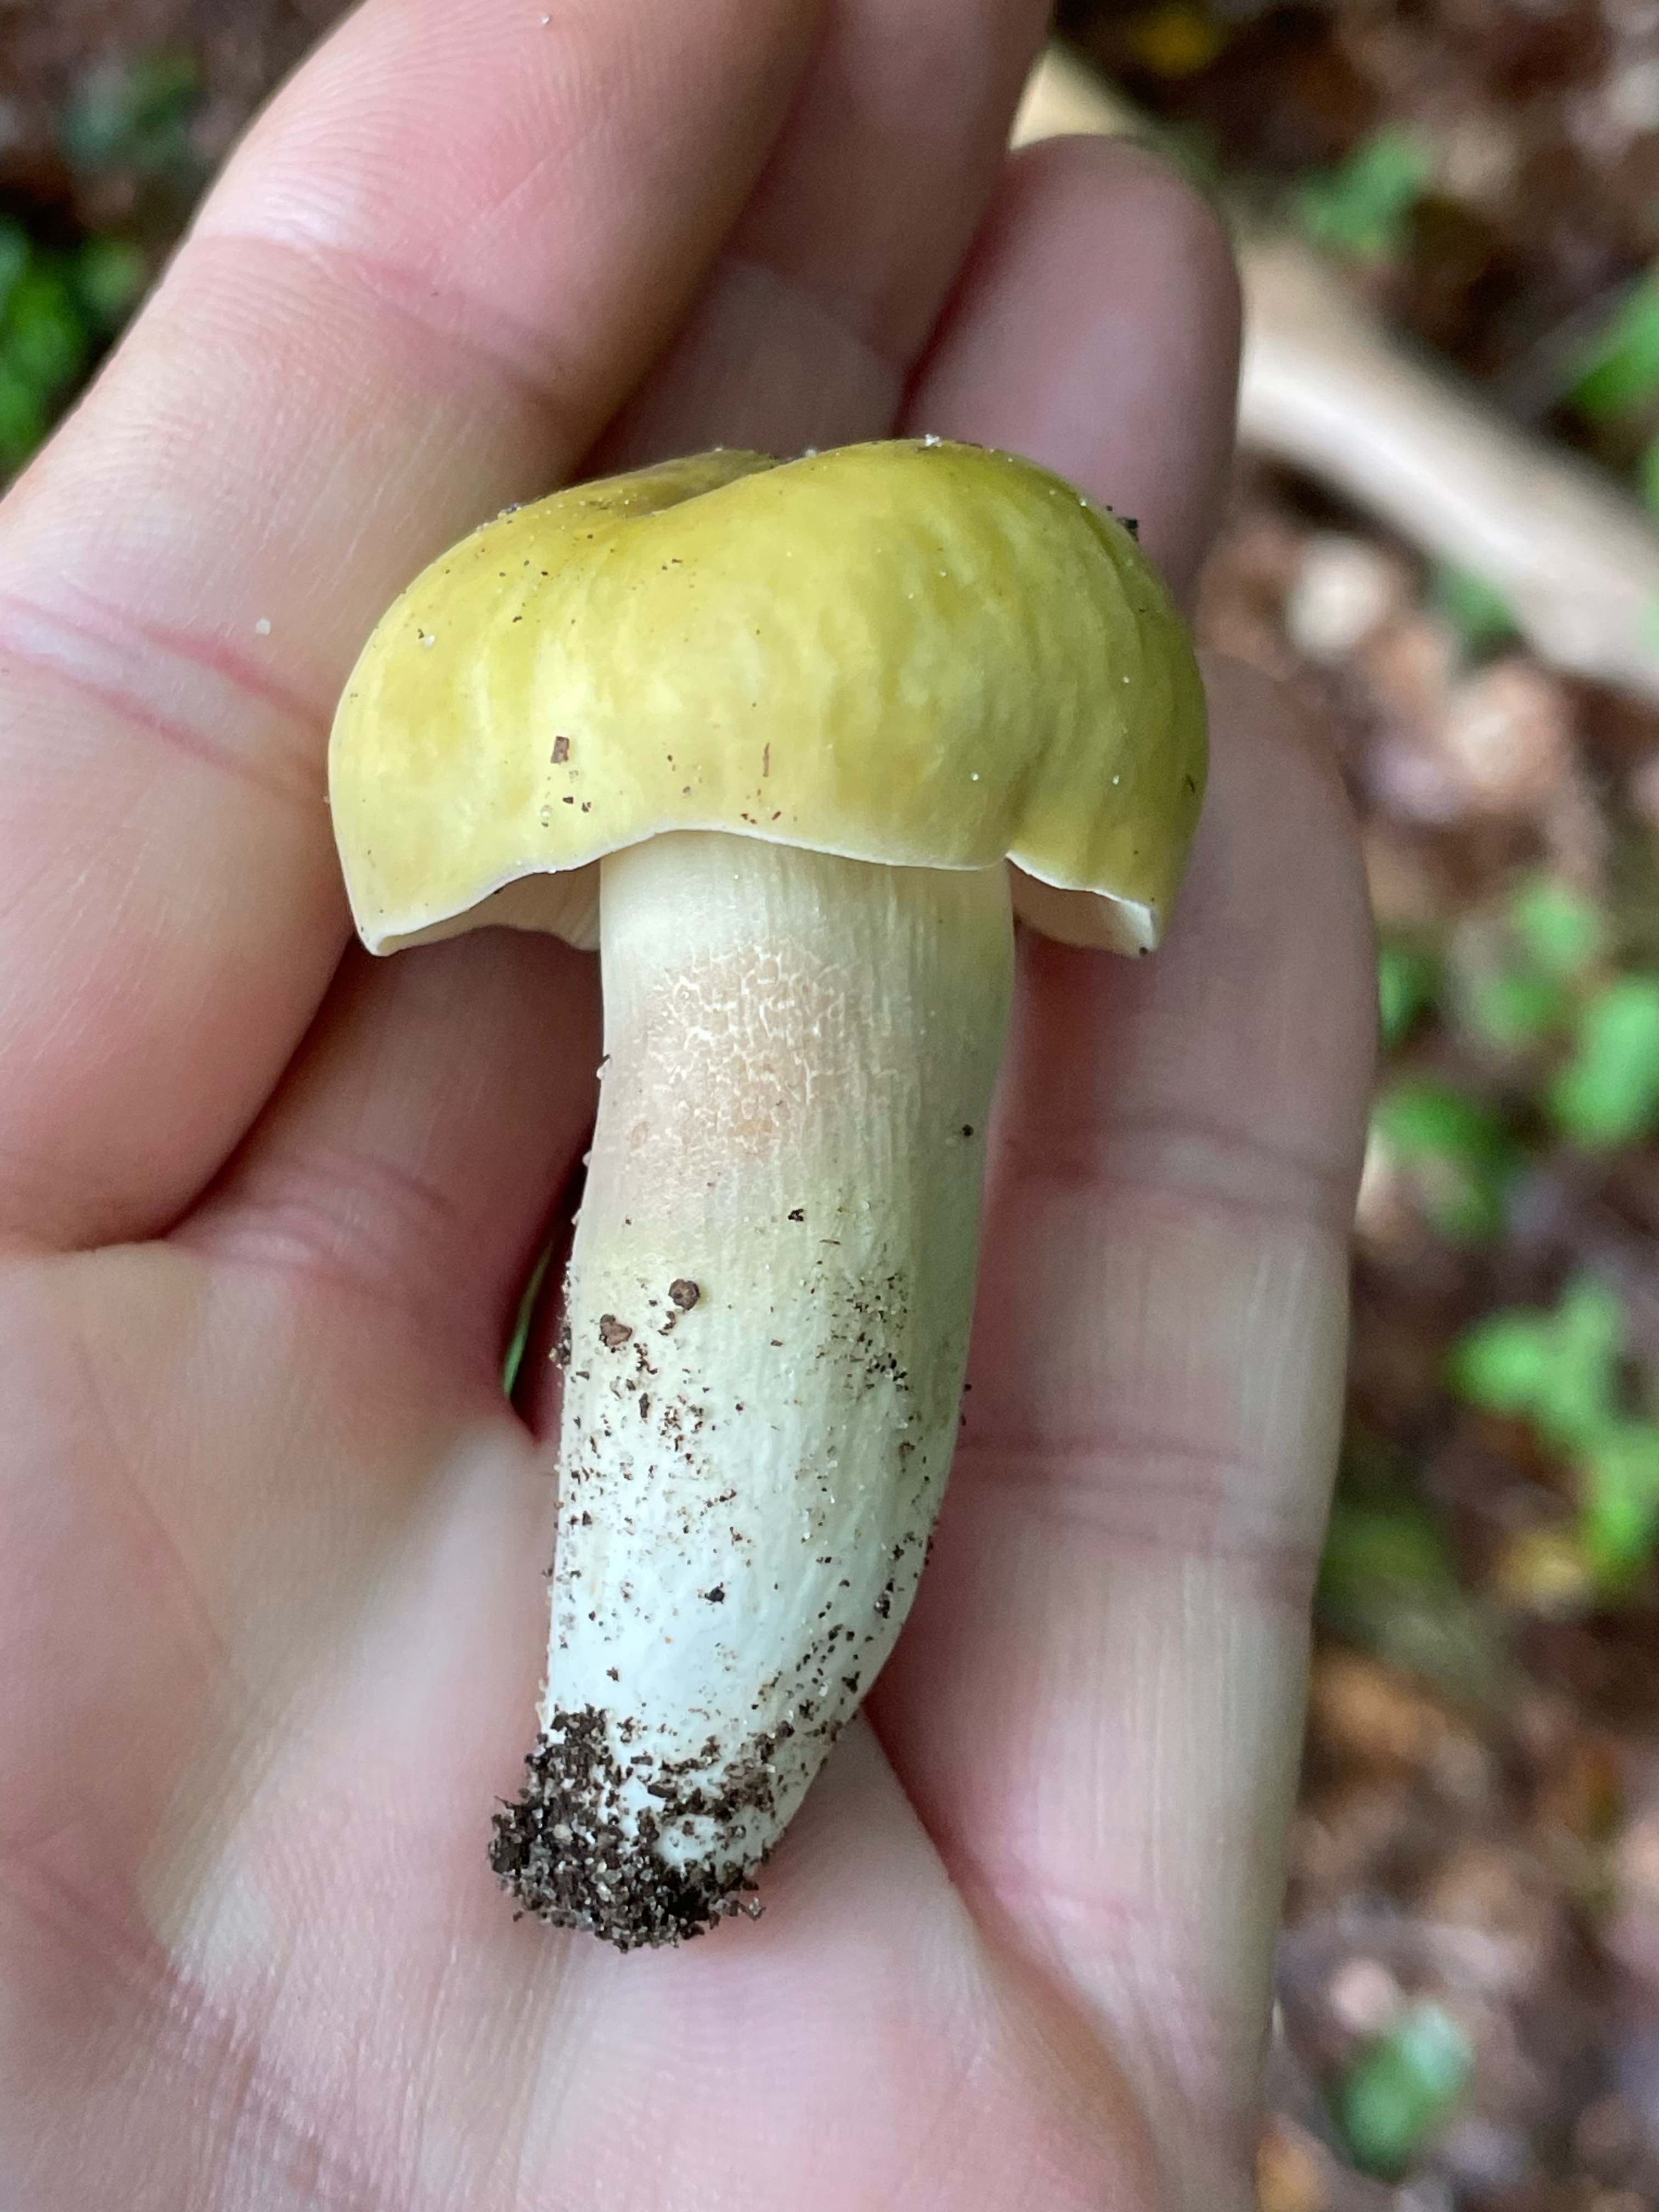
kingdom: Fungi
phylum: Basidiomycota
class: Agaricomycetes
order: Russulales
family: Russulaceae
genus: Russula
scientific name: Russula violeipes
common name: ferskengul skørhat
